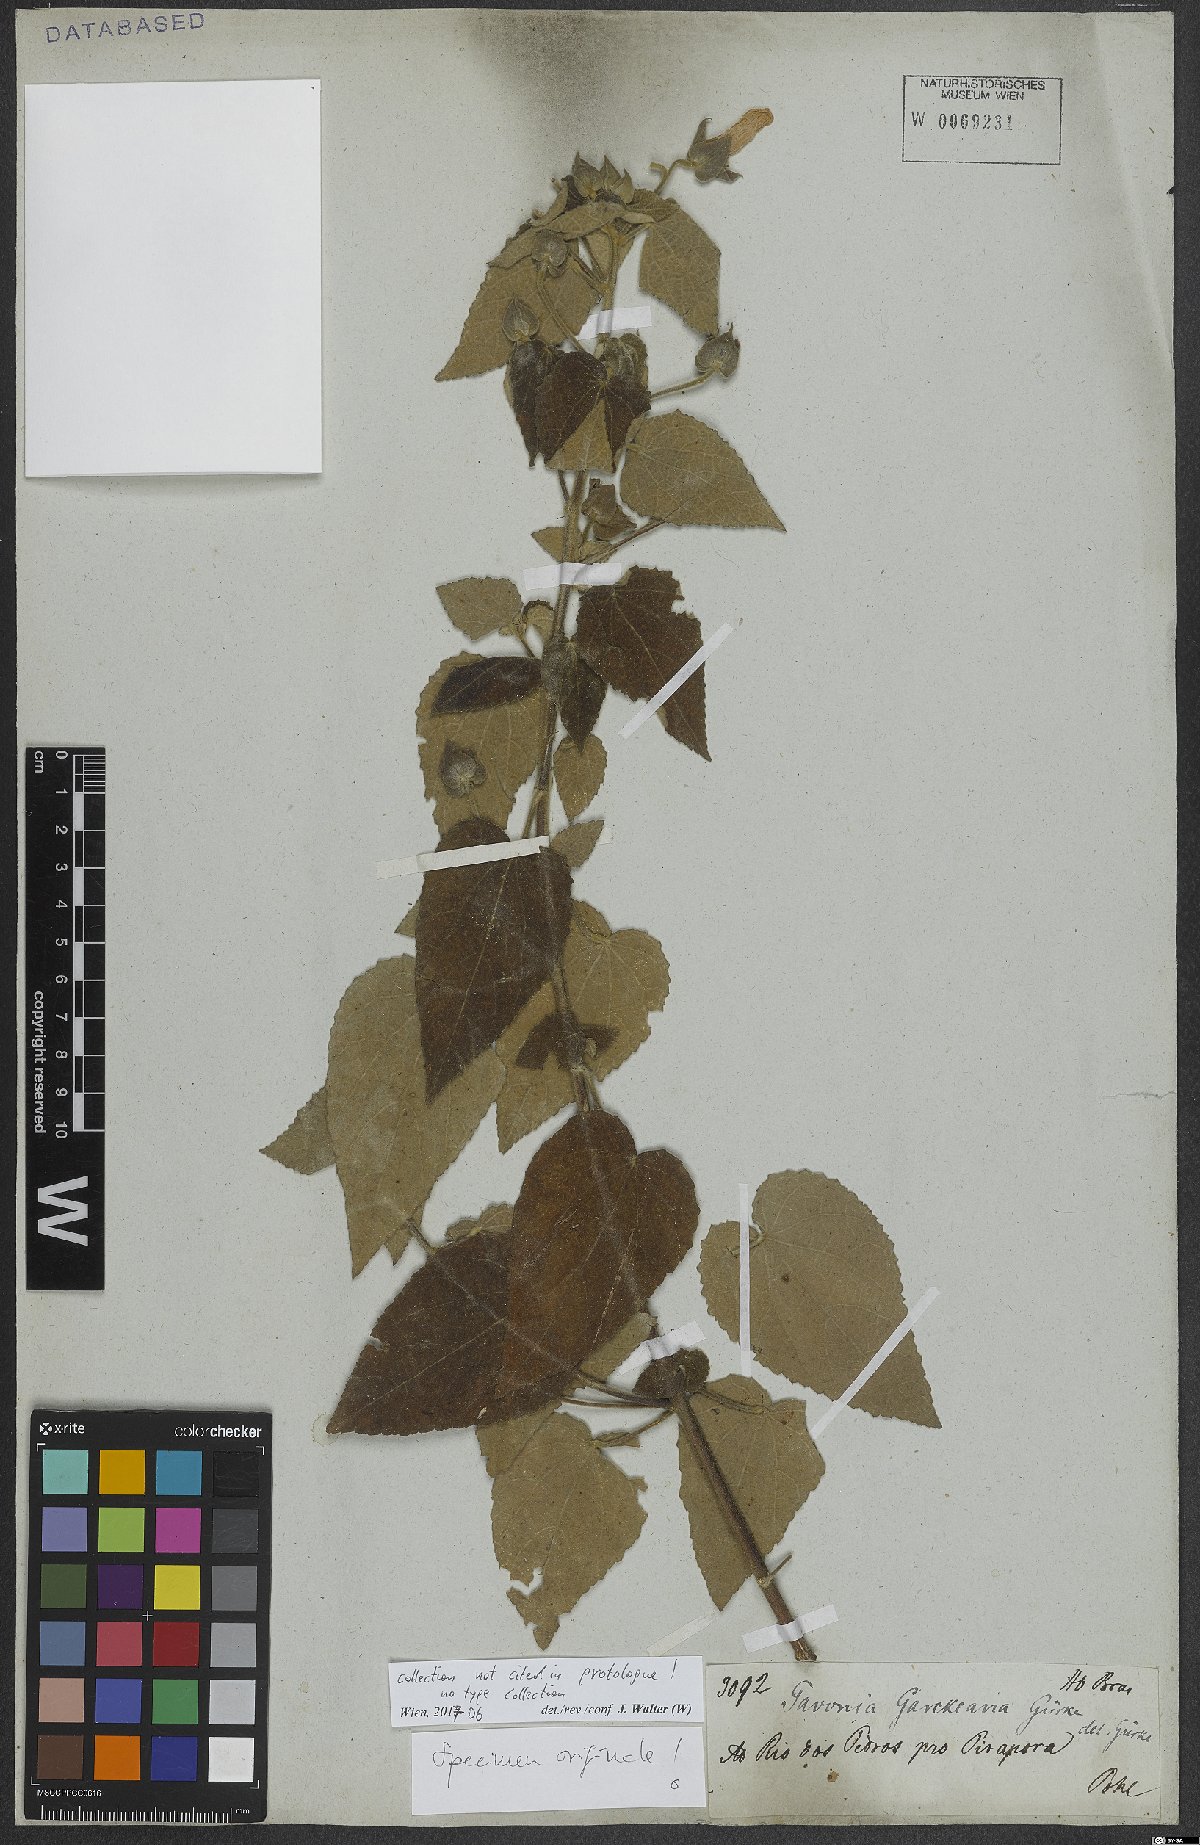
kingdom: Plantae
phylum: Tracheophyta
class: Magnoliopsida
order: Malvales
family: Malvaceae
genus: Pavonia
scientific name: Pavonia garckeana
